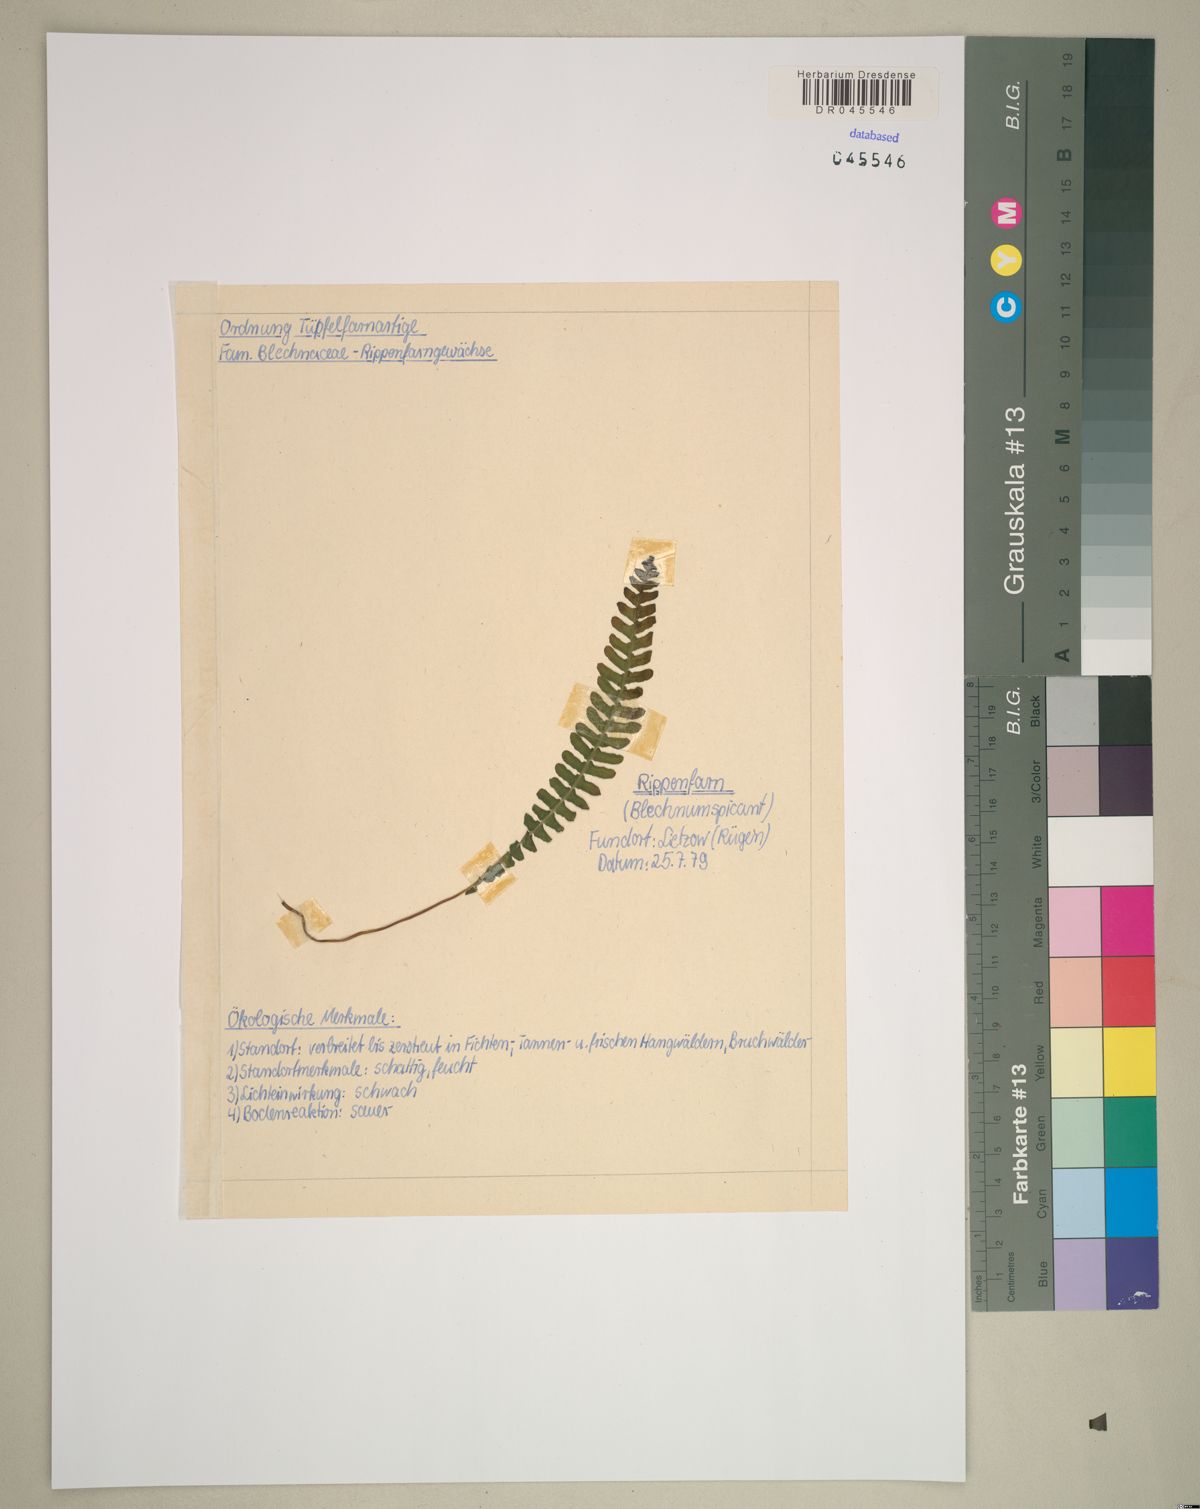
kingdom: Plantae
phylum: Tracheophyta
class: Polypodiopsida
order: Polypodiales
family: Blechnaceae
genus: Struthiopteris
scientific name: Struthiopteris spicant
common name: Deer fern
